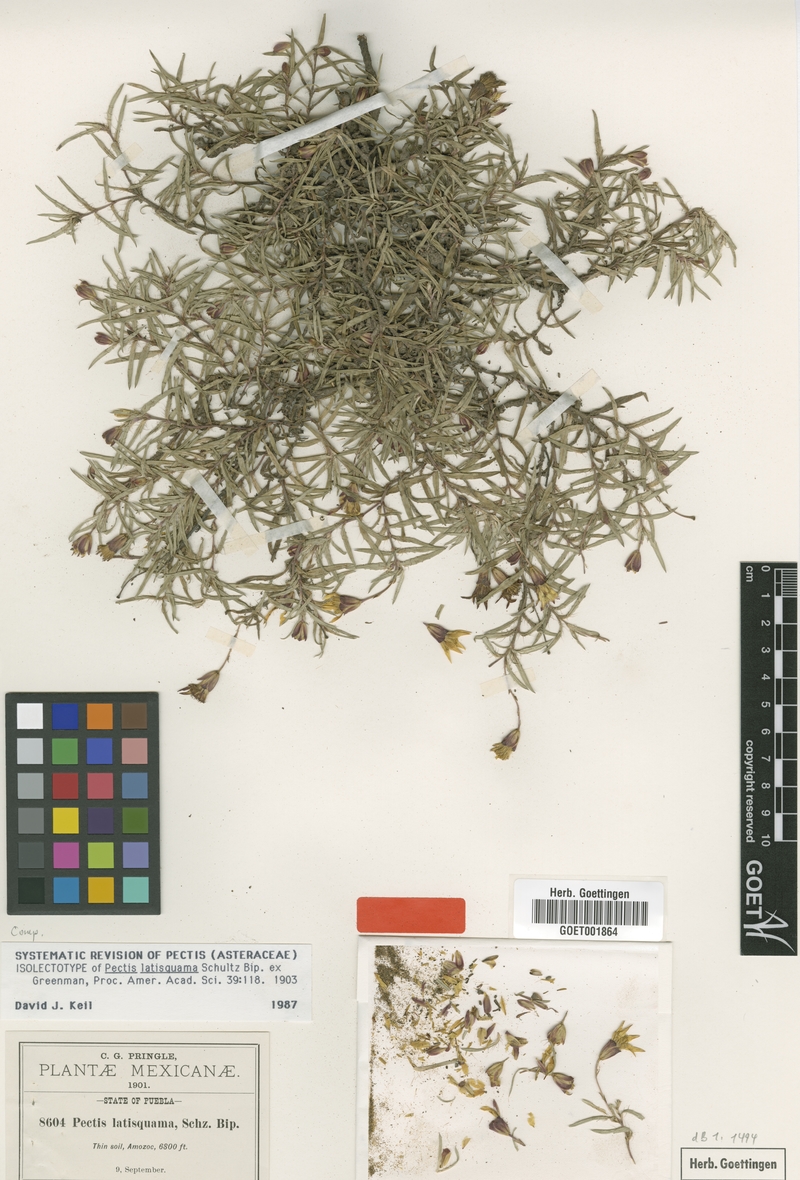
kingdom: Plantae
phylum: Tracheophyta
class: Magnoliopsida
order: Asterales
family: Asteraceae
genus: Pectis
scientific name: Pectis latisquama
